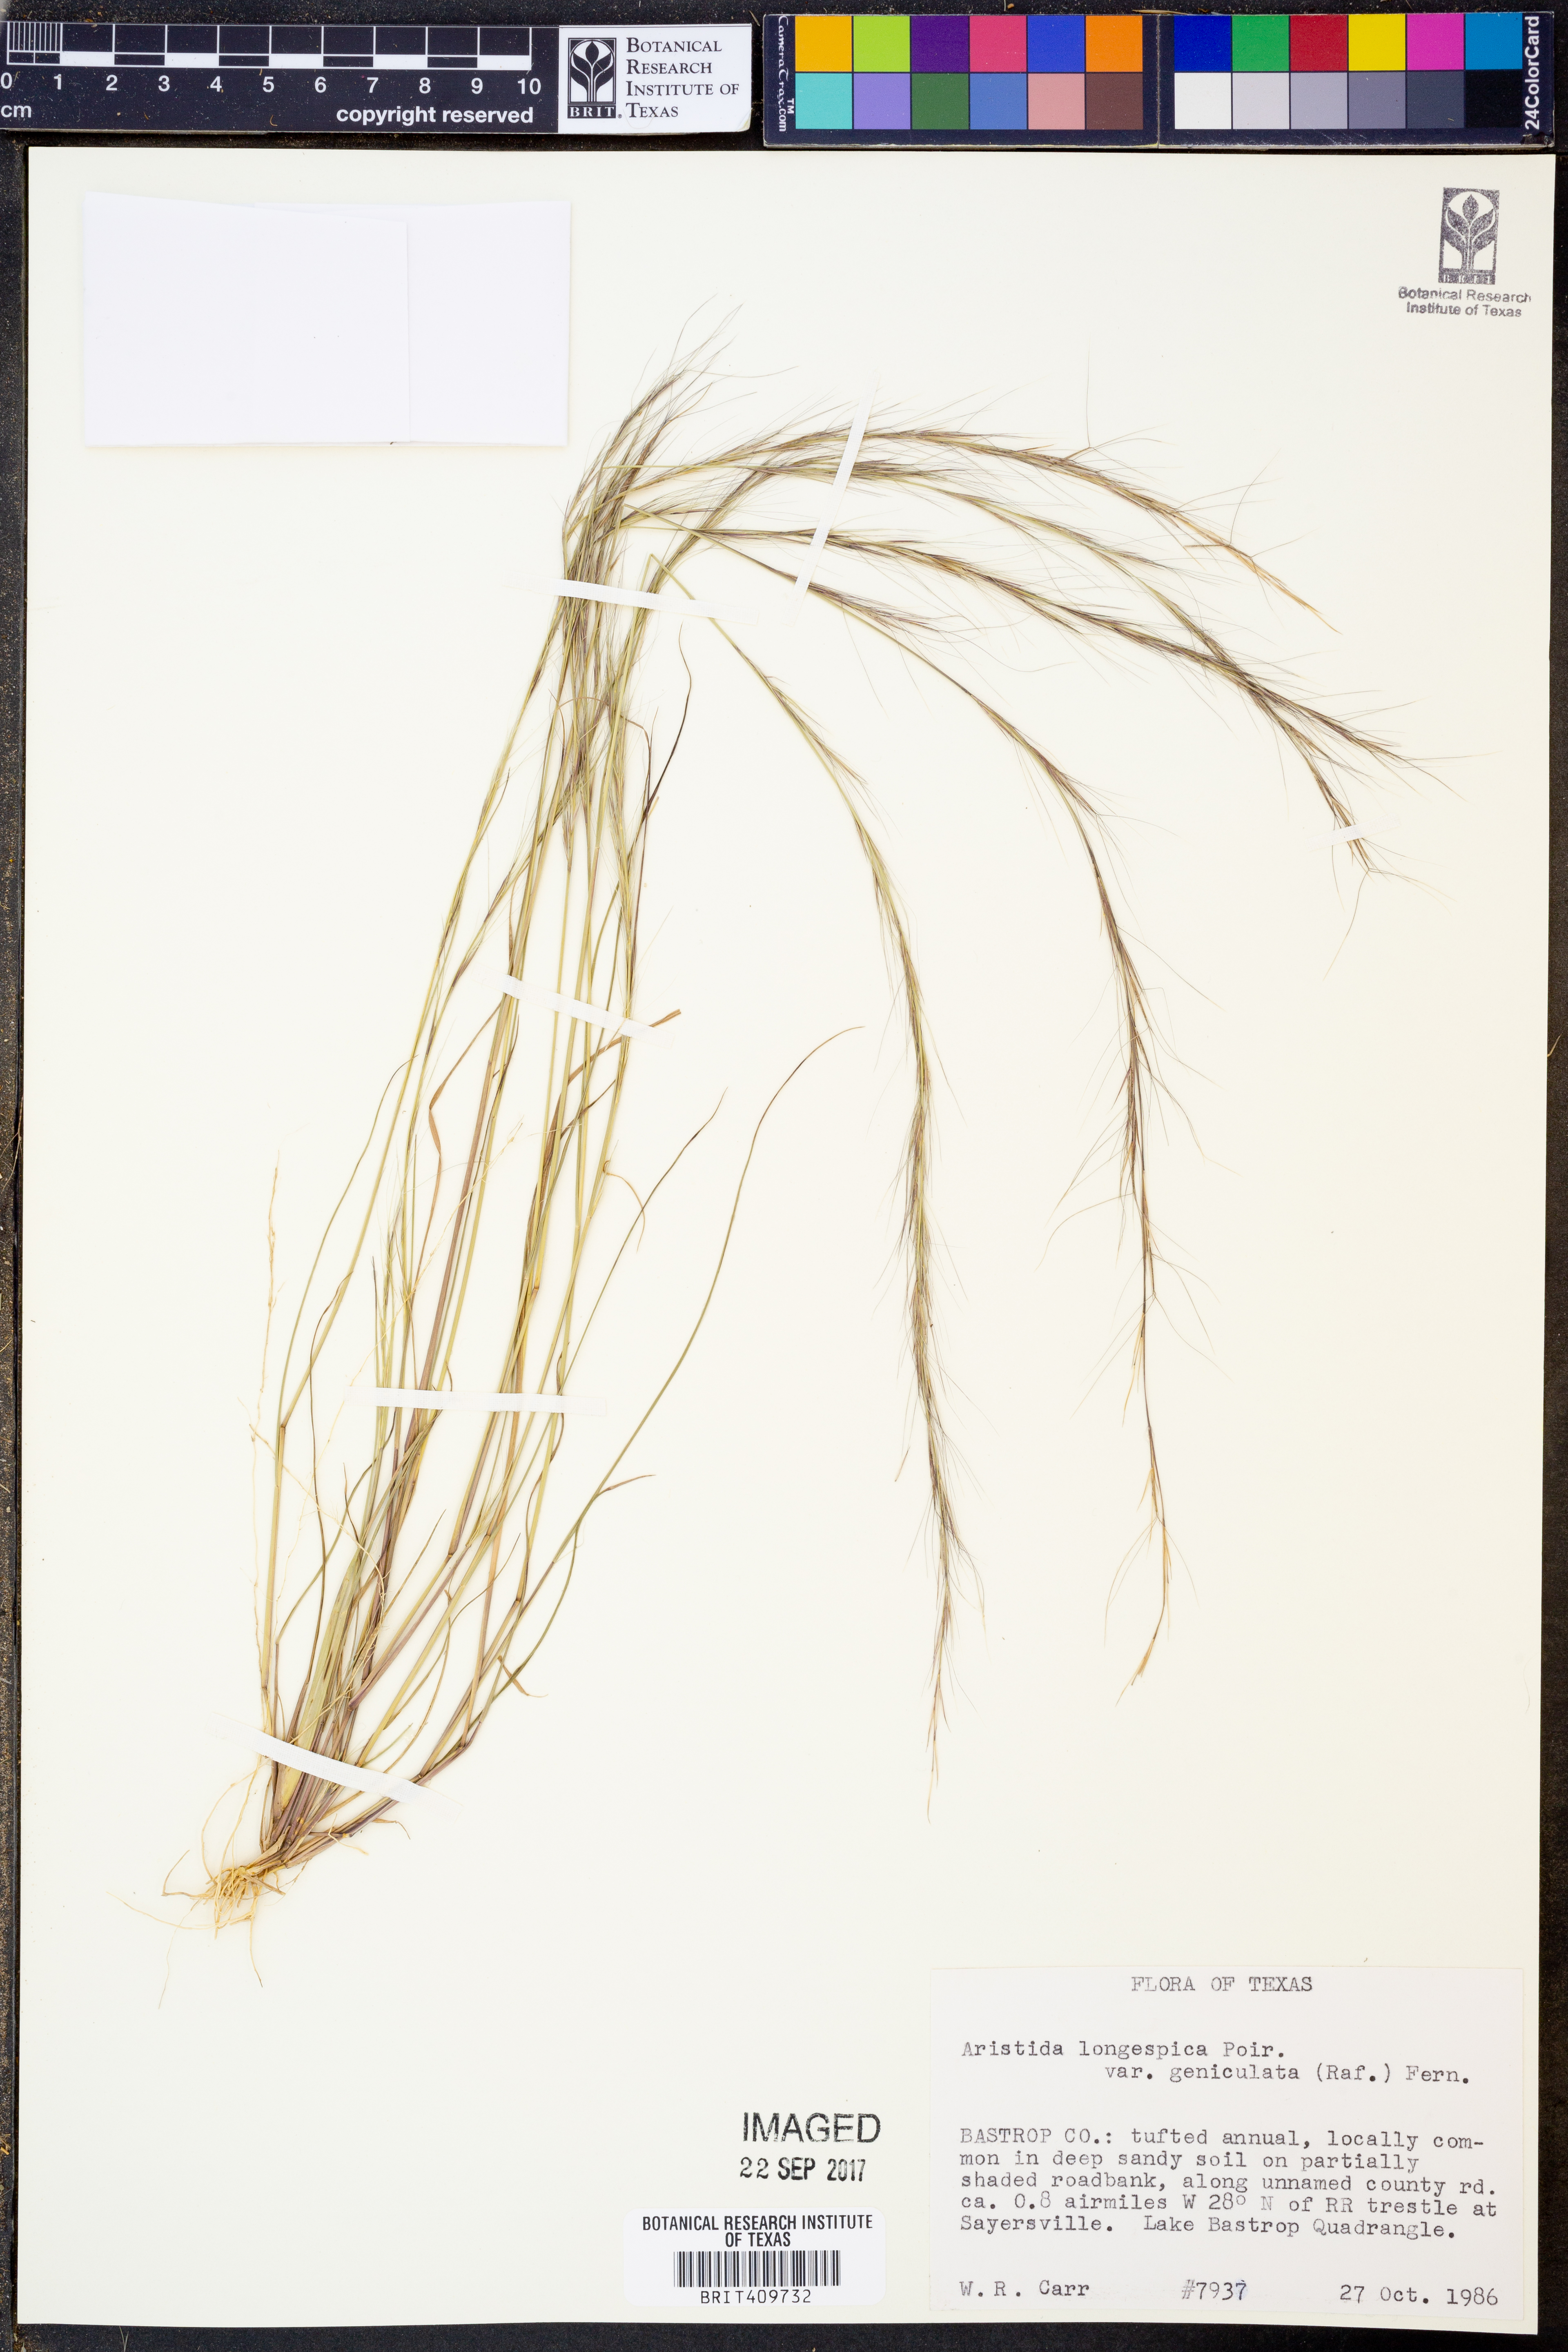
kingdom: Plantae
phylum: Tracheophyta
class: Liliopsida
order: Poales
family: Poaceae
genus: Aristida
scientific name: Aristida longespica
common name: Long-spiked triple-awned grass
